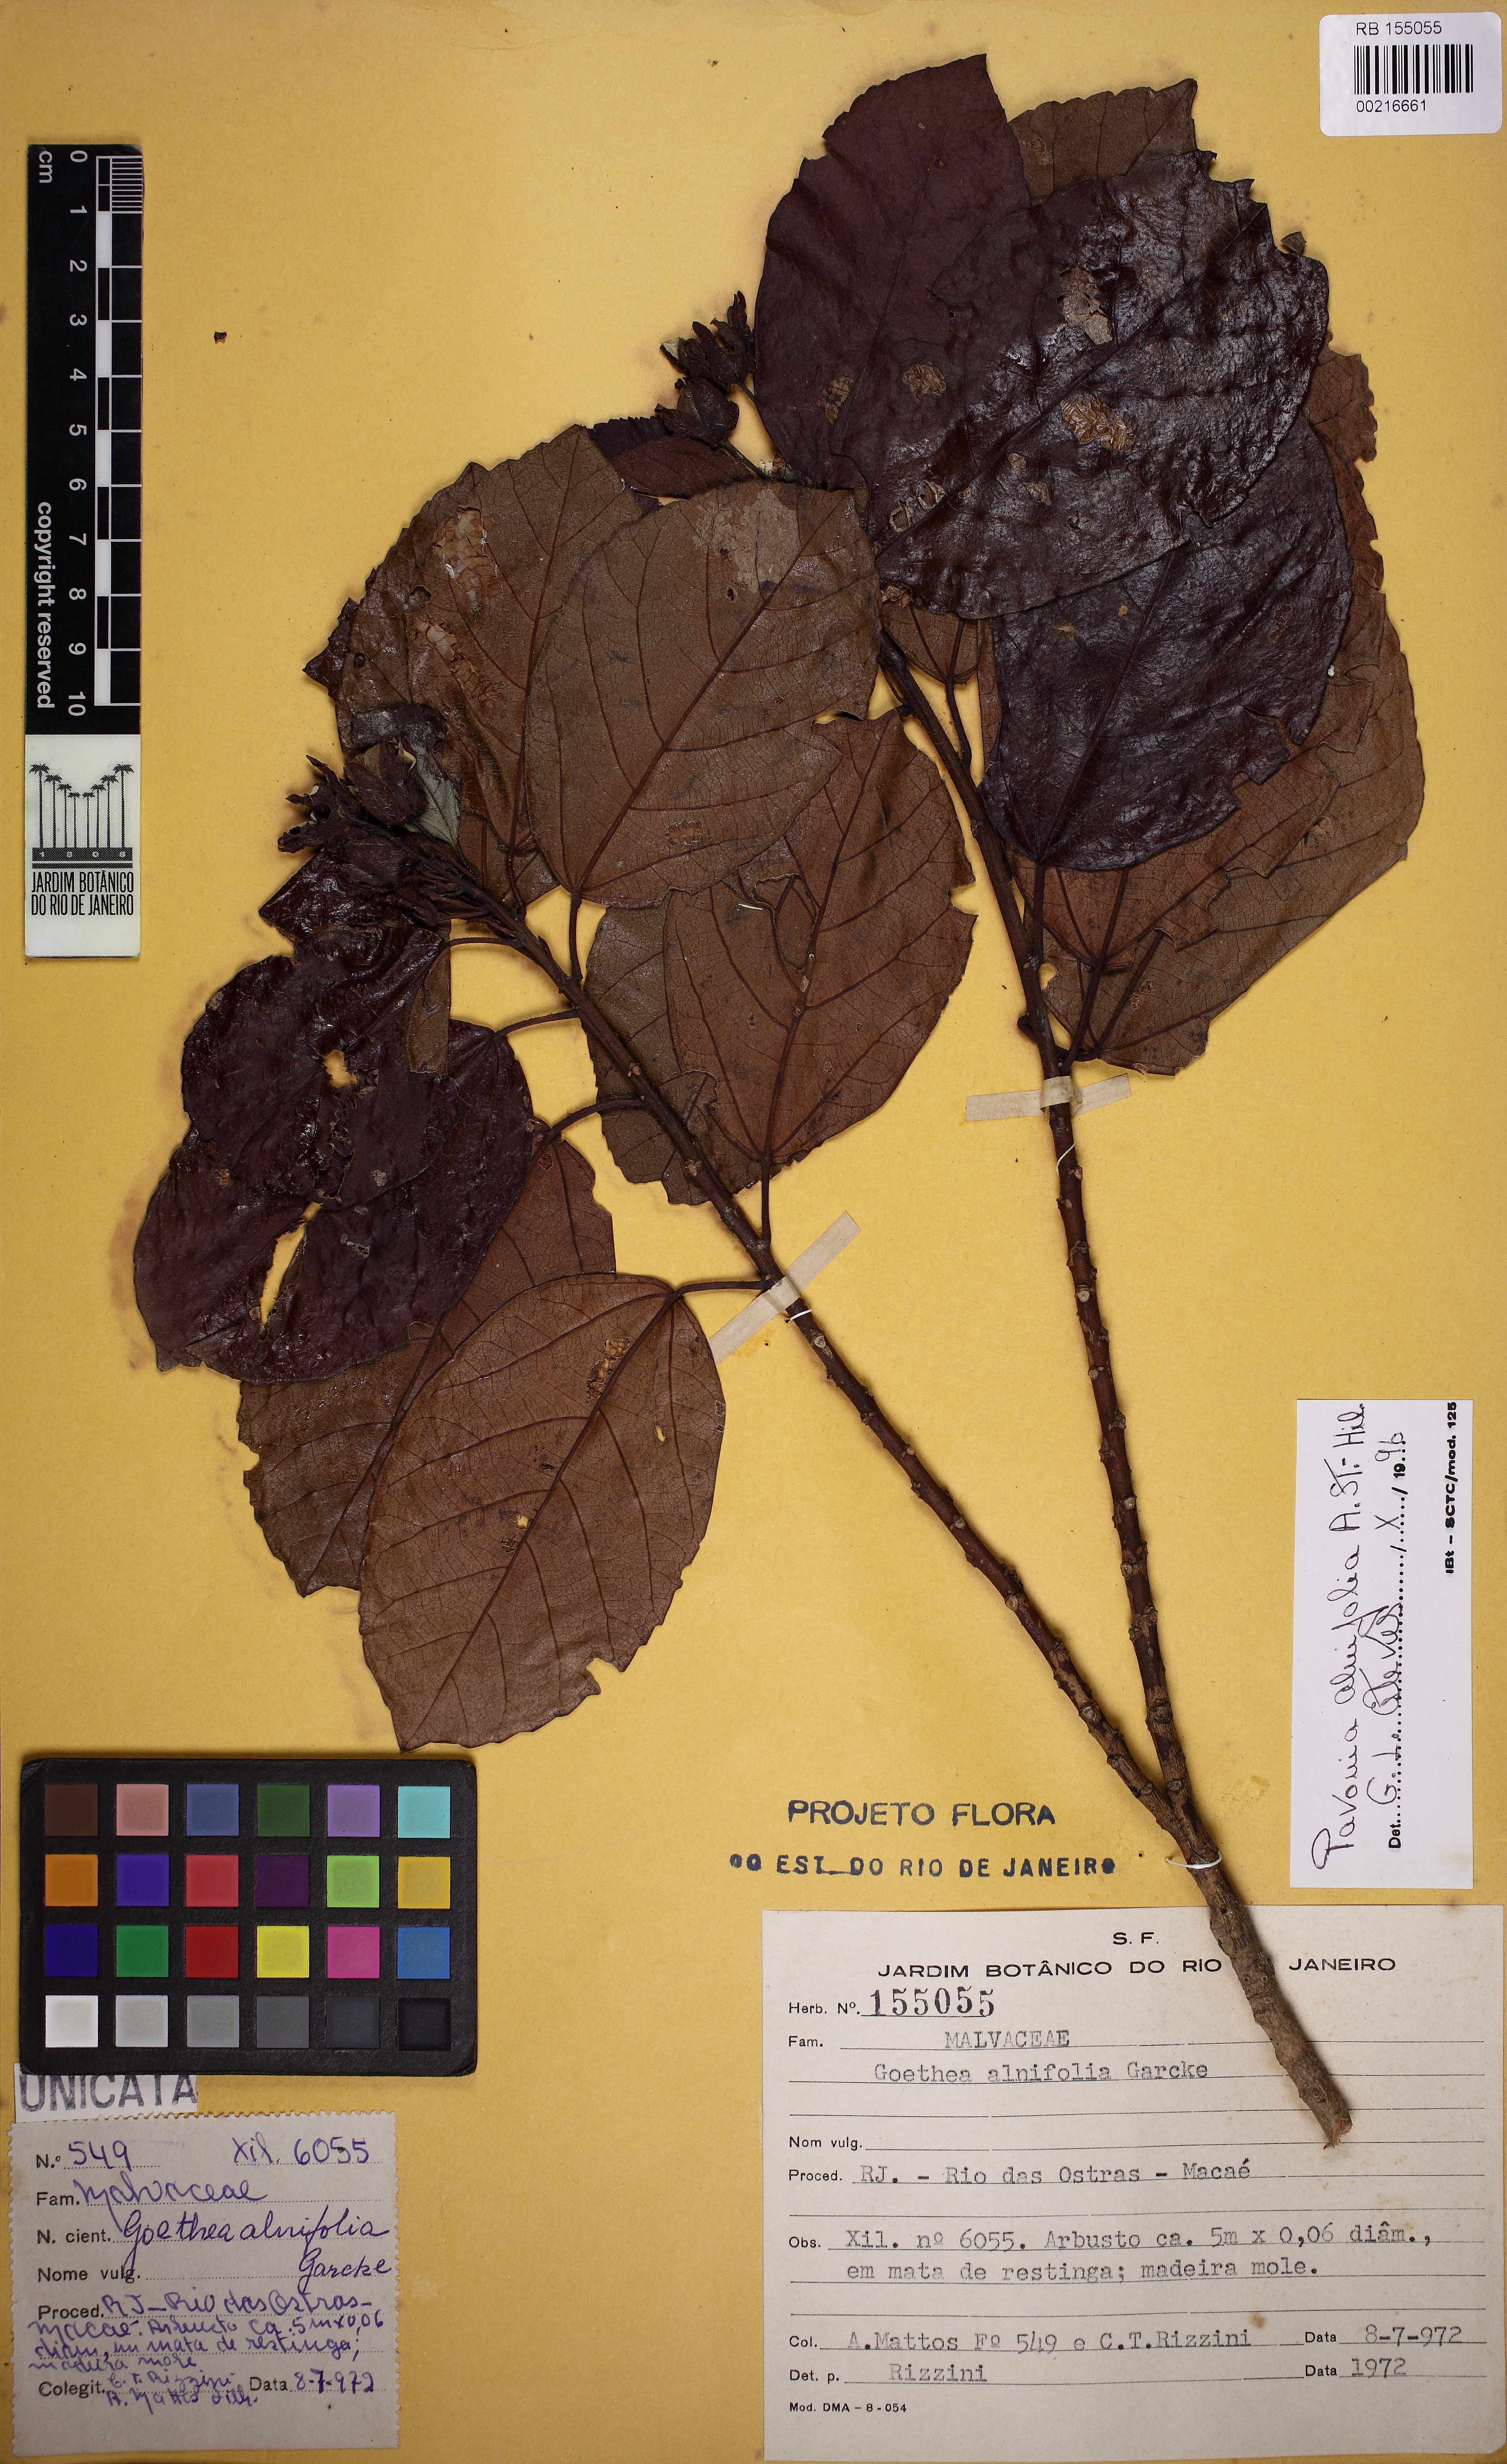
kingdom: Plantae
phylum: Tracheophyta
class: Magnoliopsida
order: Malvales
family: Malvaceae
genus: Pavonia
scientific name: Pavonia alnifolia
